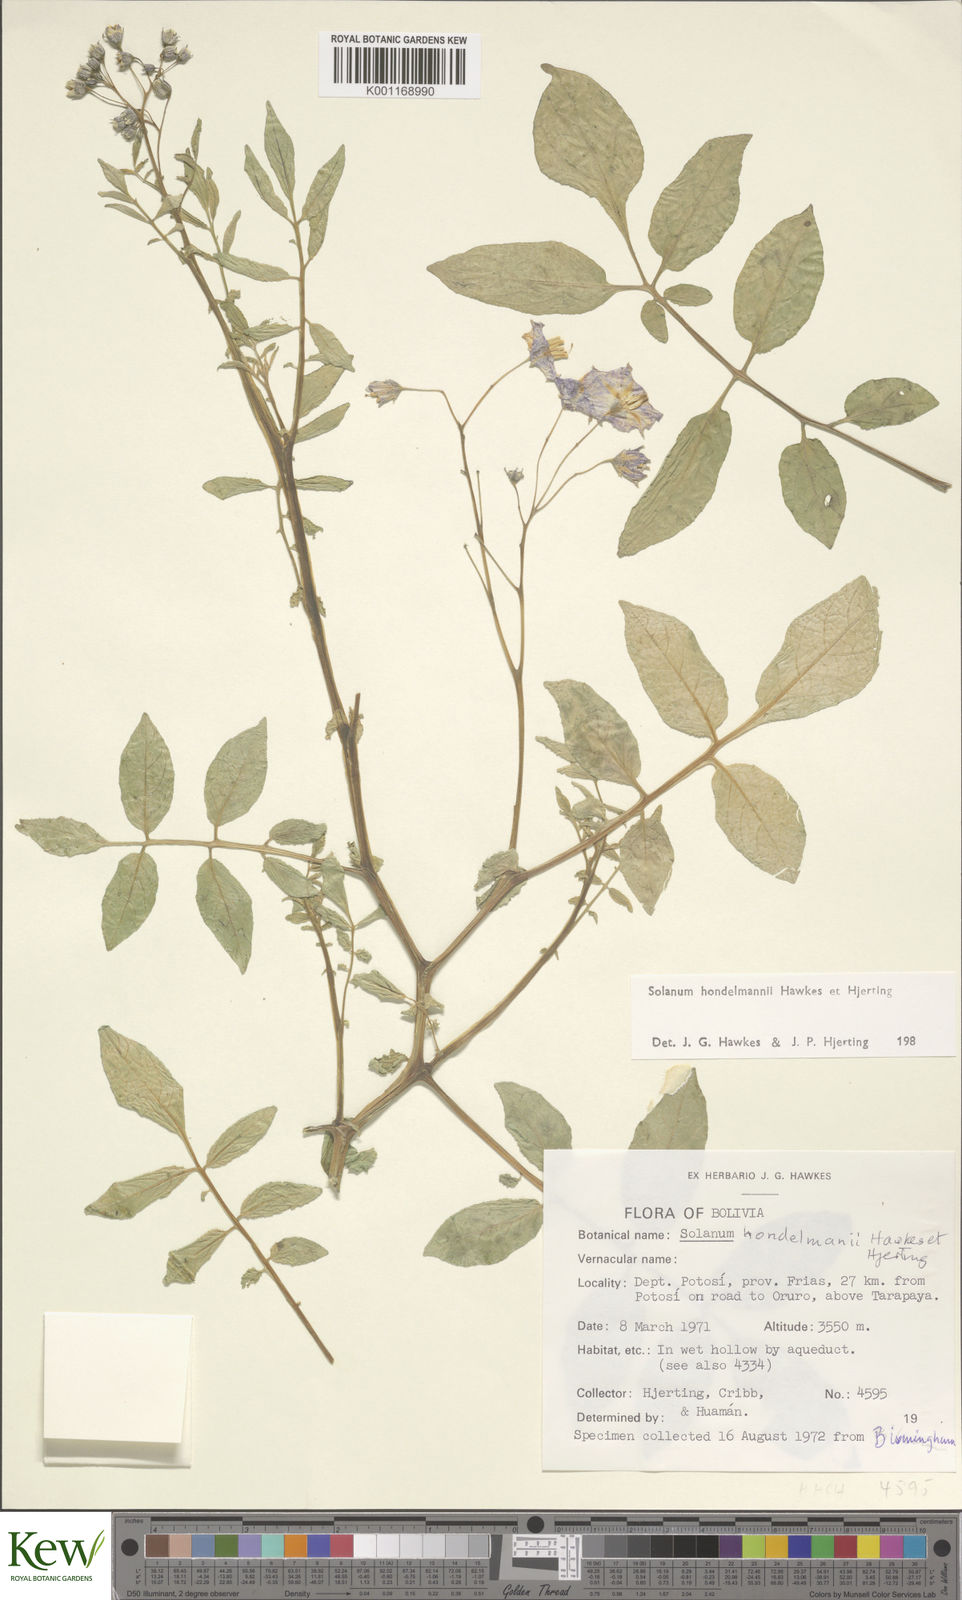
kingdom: Plantae
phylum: Tracheophyta
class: Magnoliopsida
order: Solanales
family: Solanaceae
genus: Solanum
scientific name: Solanum brevicaule
